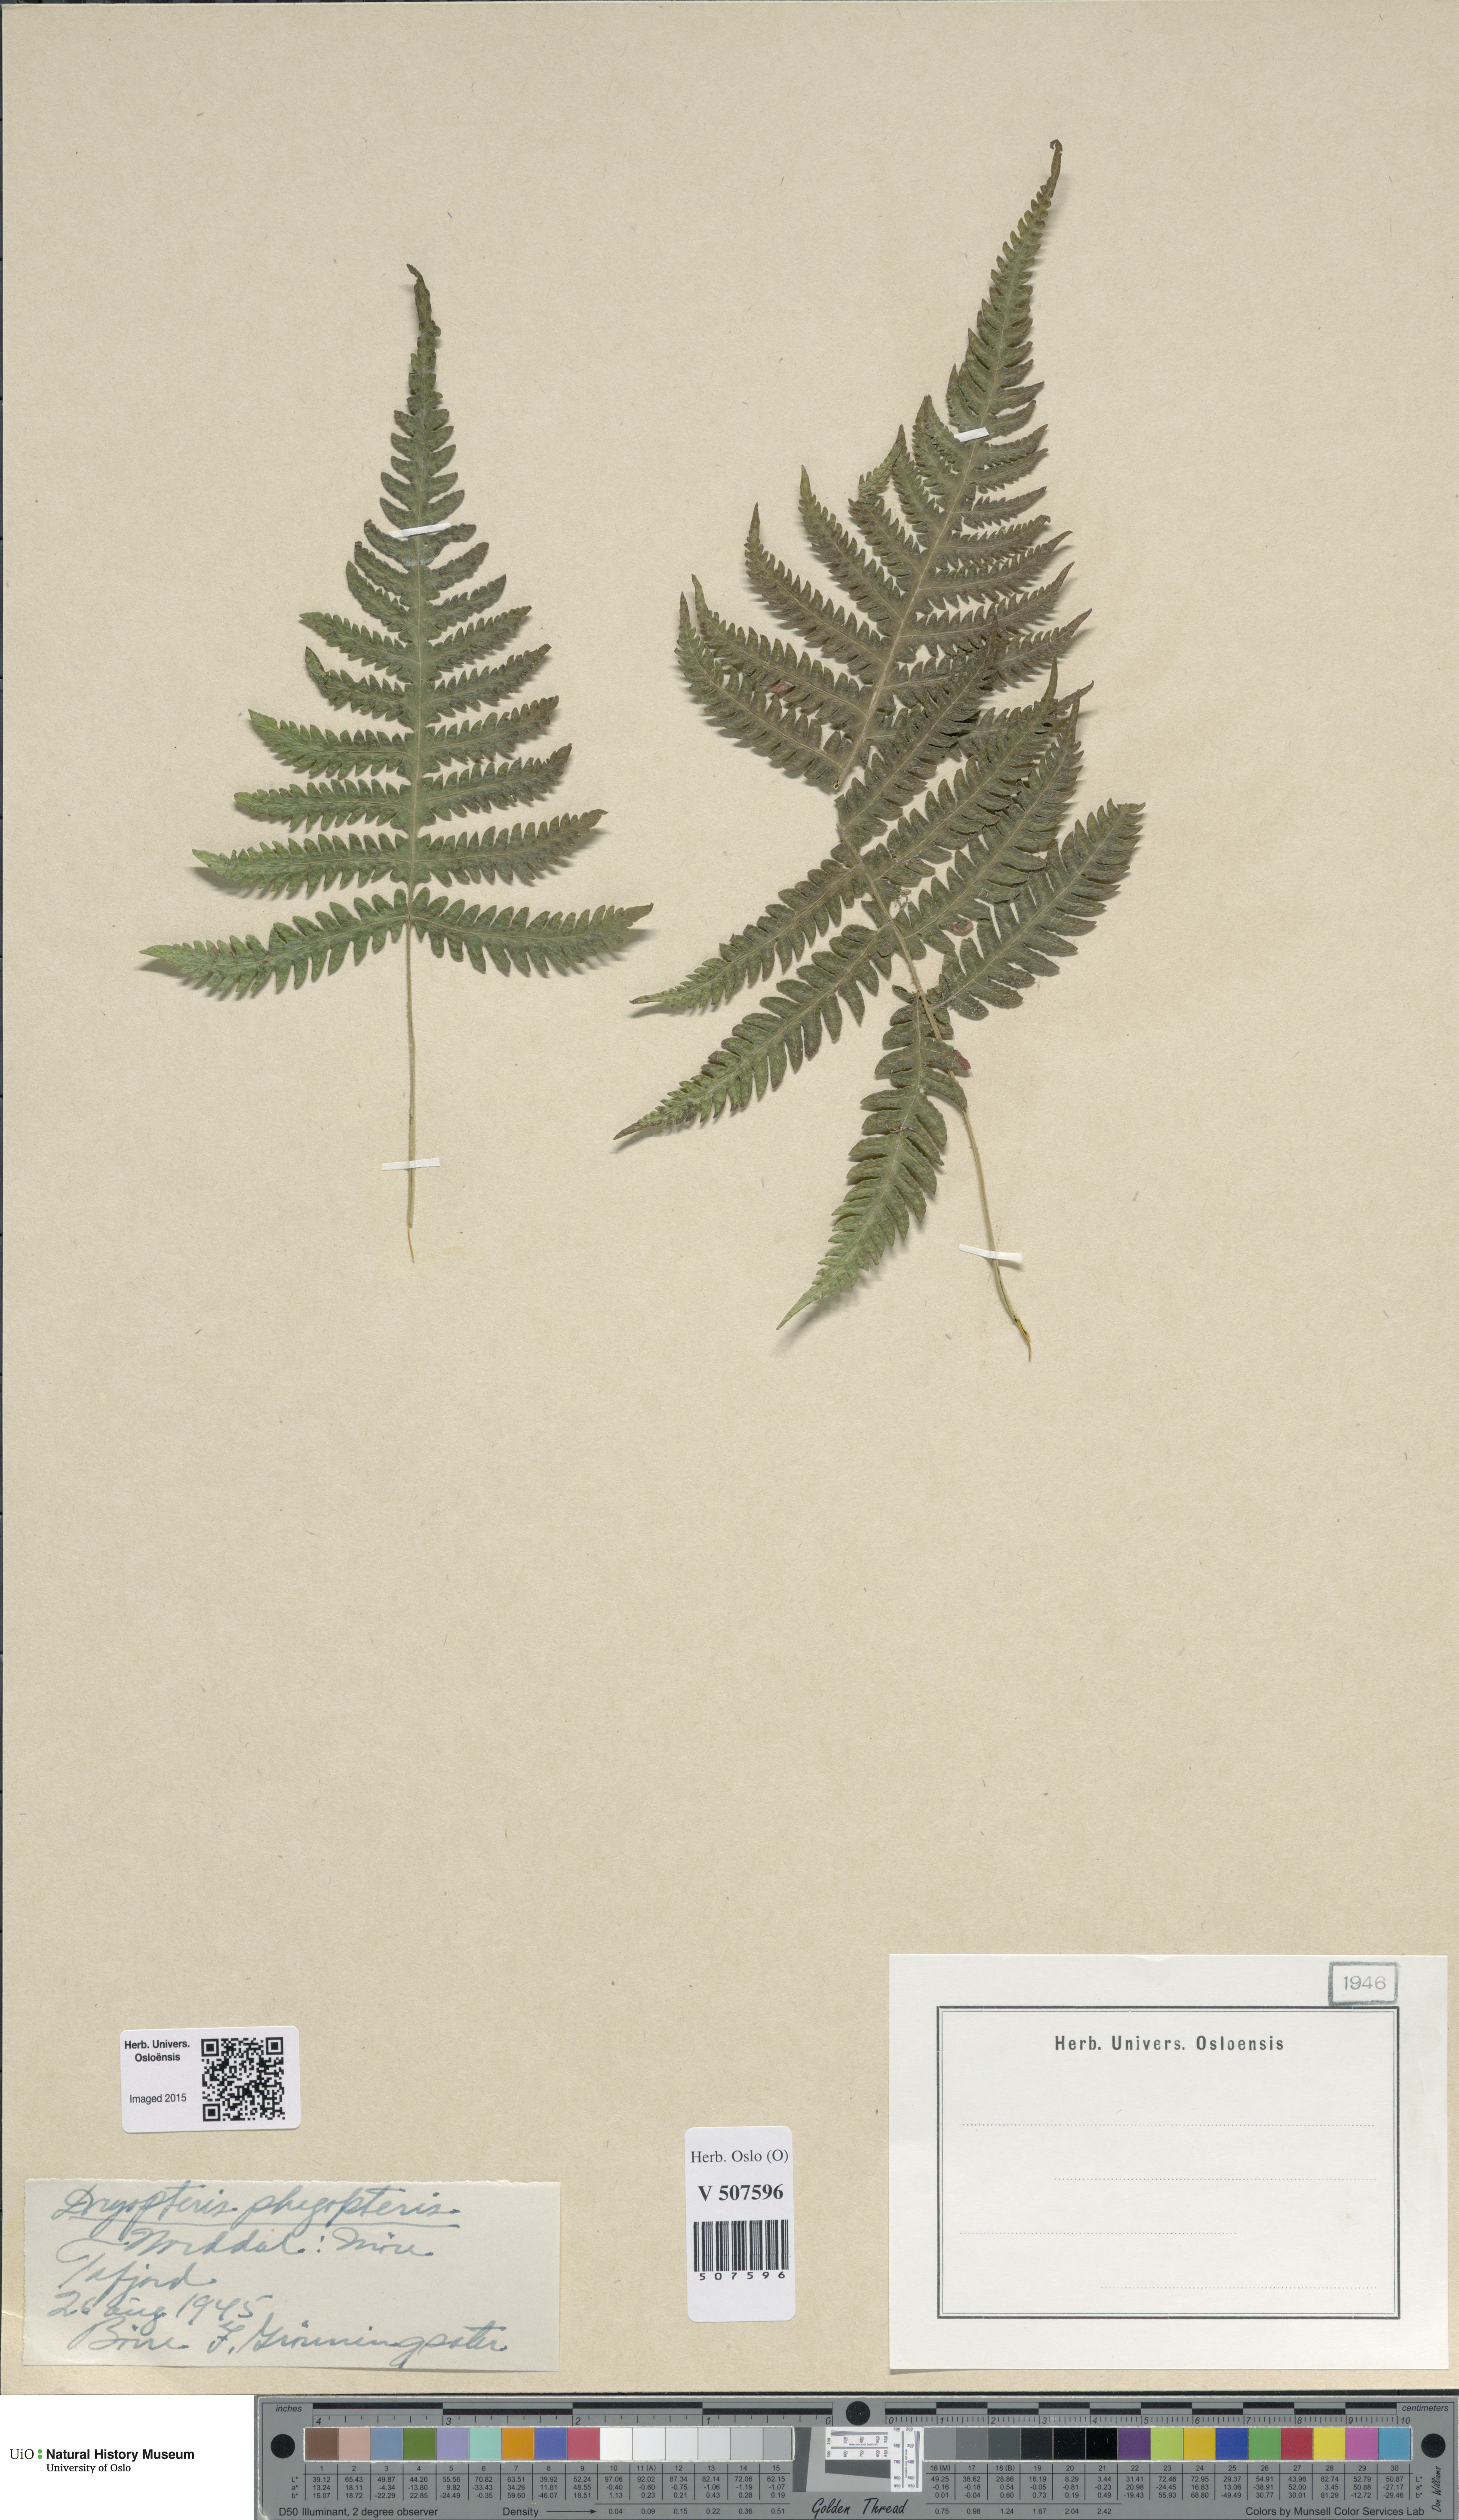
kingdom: Plantae
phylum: Tracheophyta
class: Polypodiopsida
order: Polypodiales
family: Thelypteridaceae
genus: Phegopteris
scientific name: Phegopteris connectilis
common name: Beech fern
